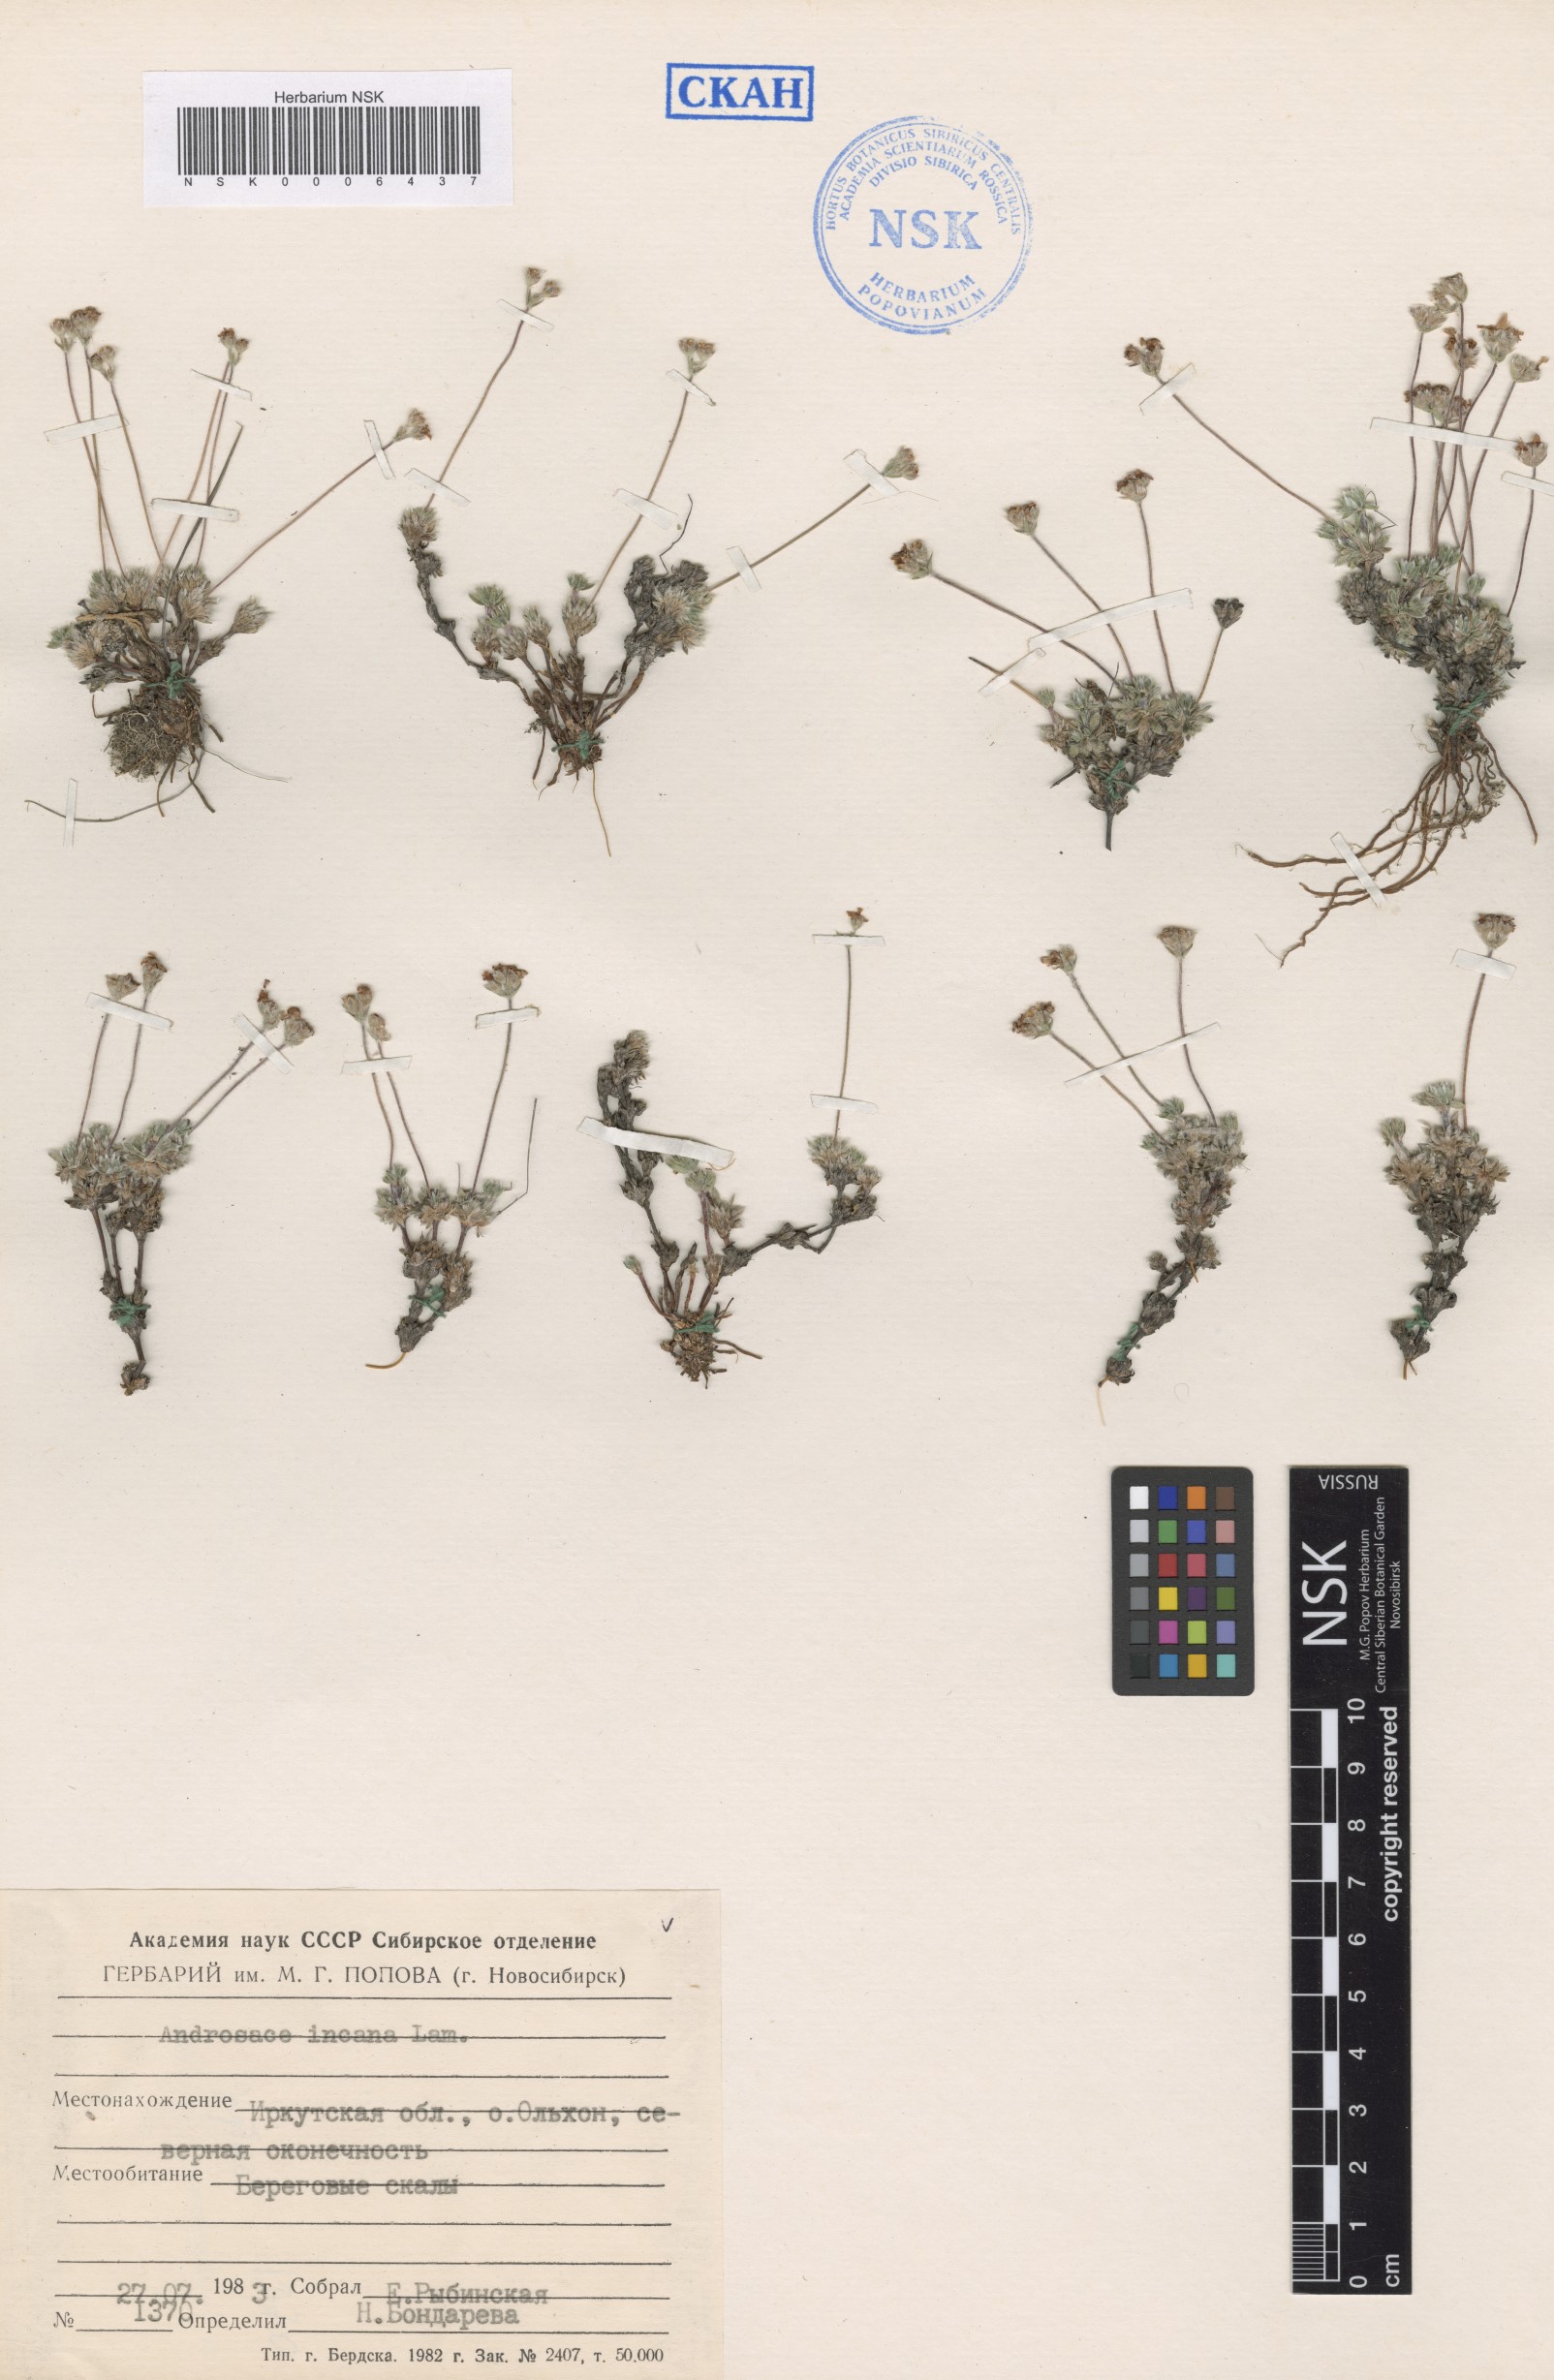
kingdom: Plantae
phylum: Tracheophyta
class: Magnoliopsida
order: Ericales
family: Primulaceae
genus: Androsace
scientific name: Androsace incana
